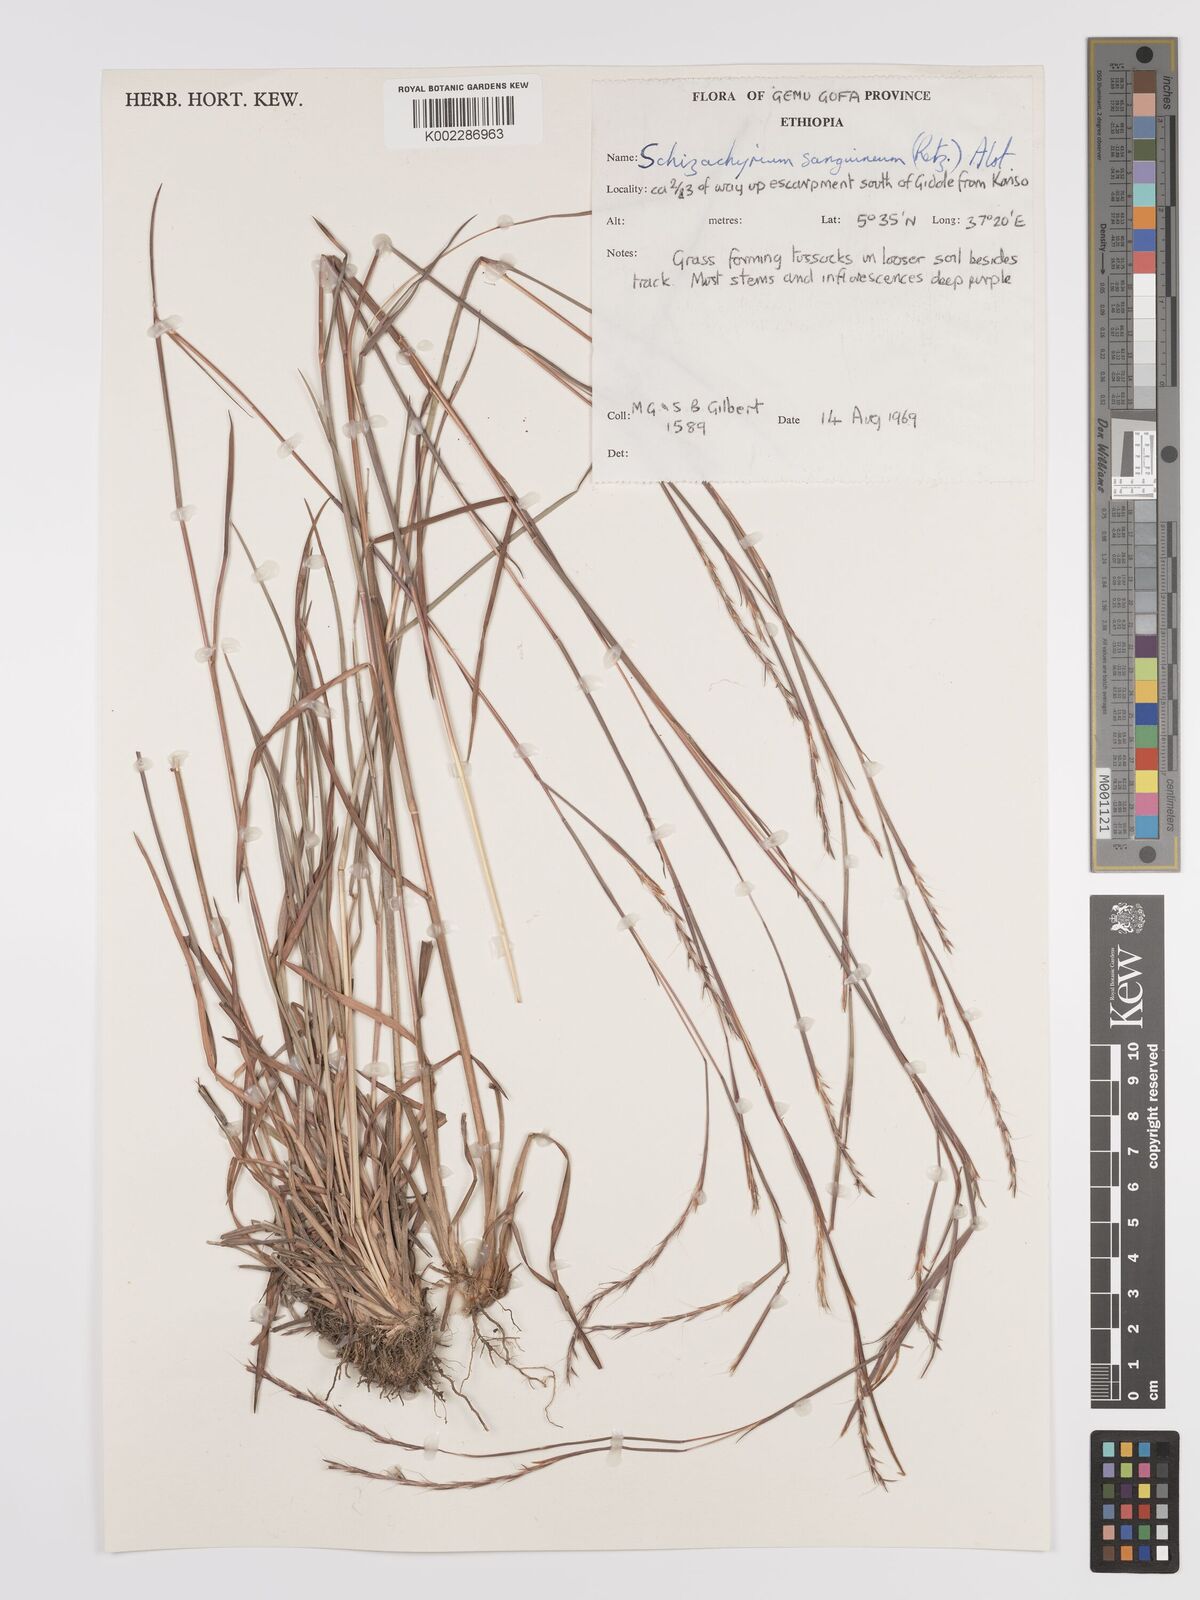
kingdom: Plantae
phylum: Tracheophyta
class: Liliopsida
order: Poales
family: Poaceae
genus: Schizachyrium
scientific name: Schizachyrium sanguineum
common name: Crimson bluestem
